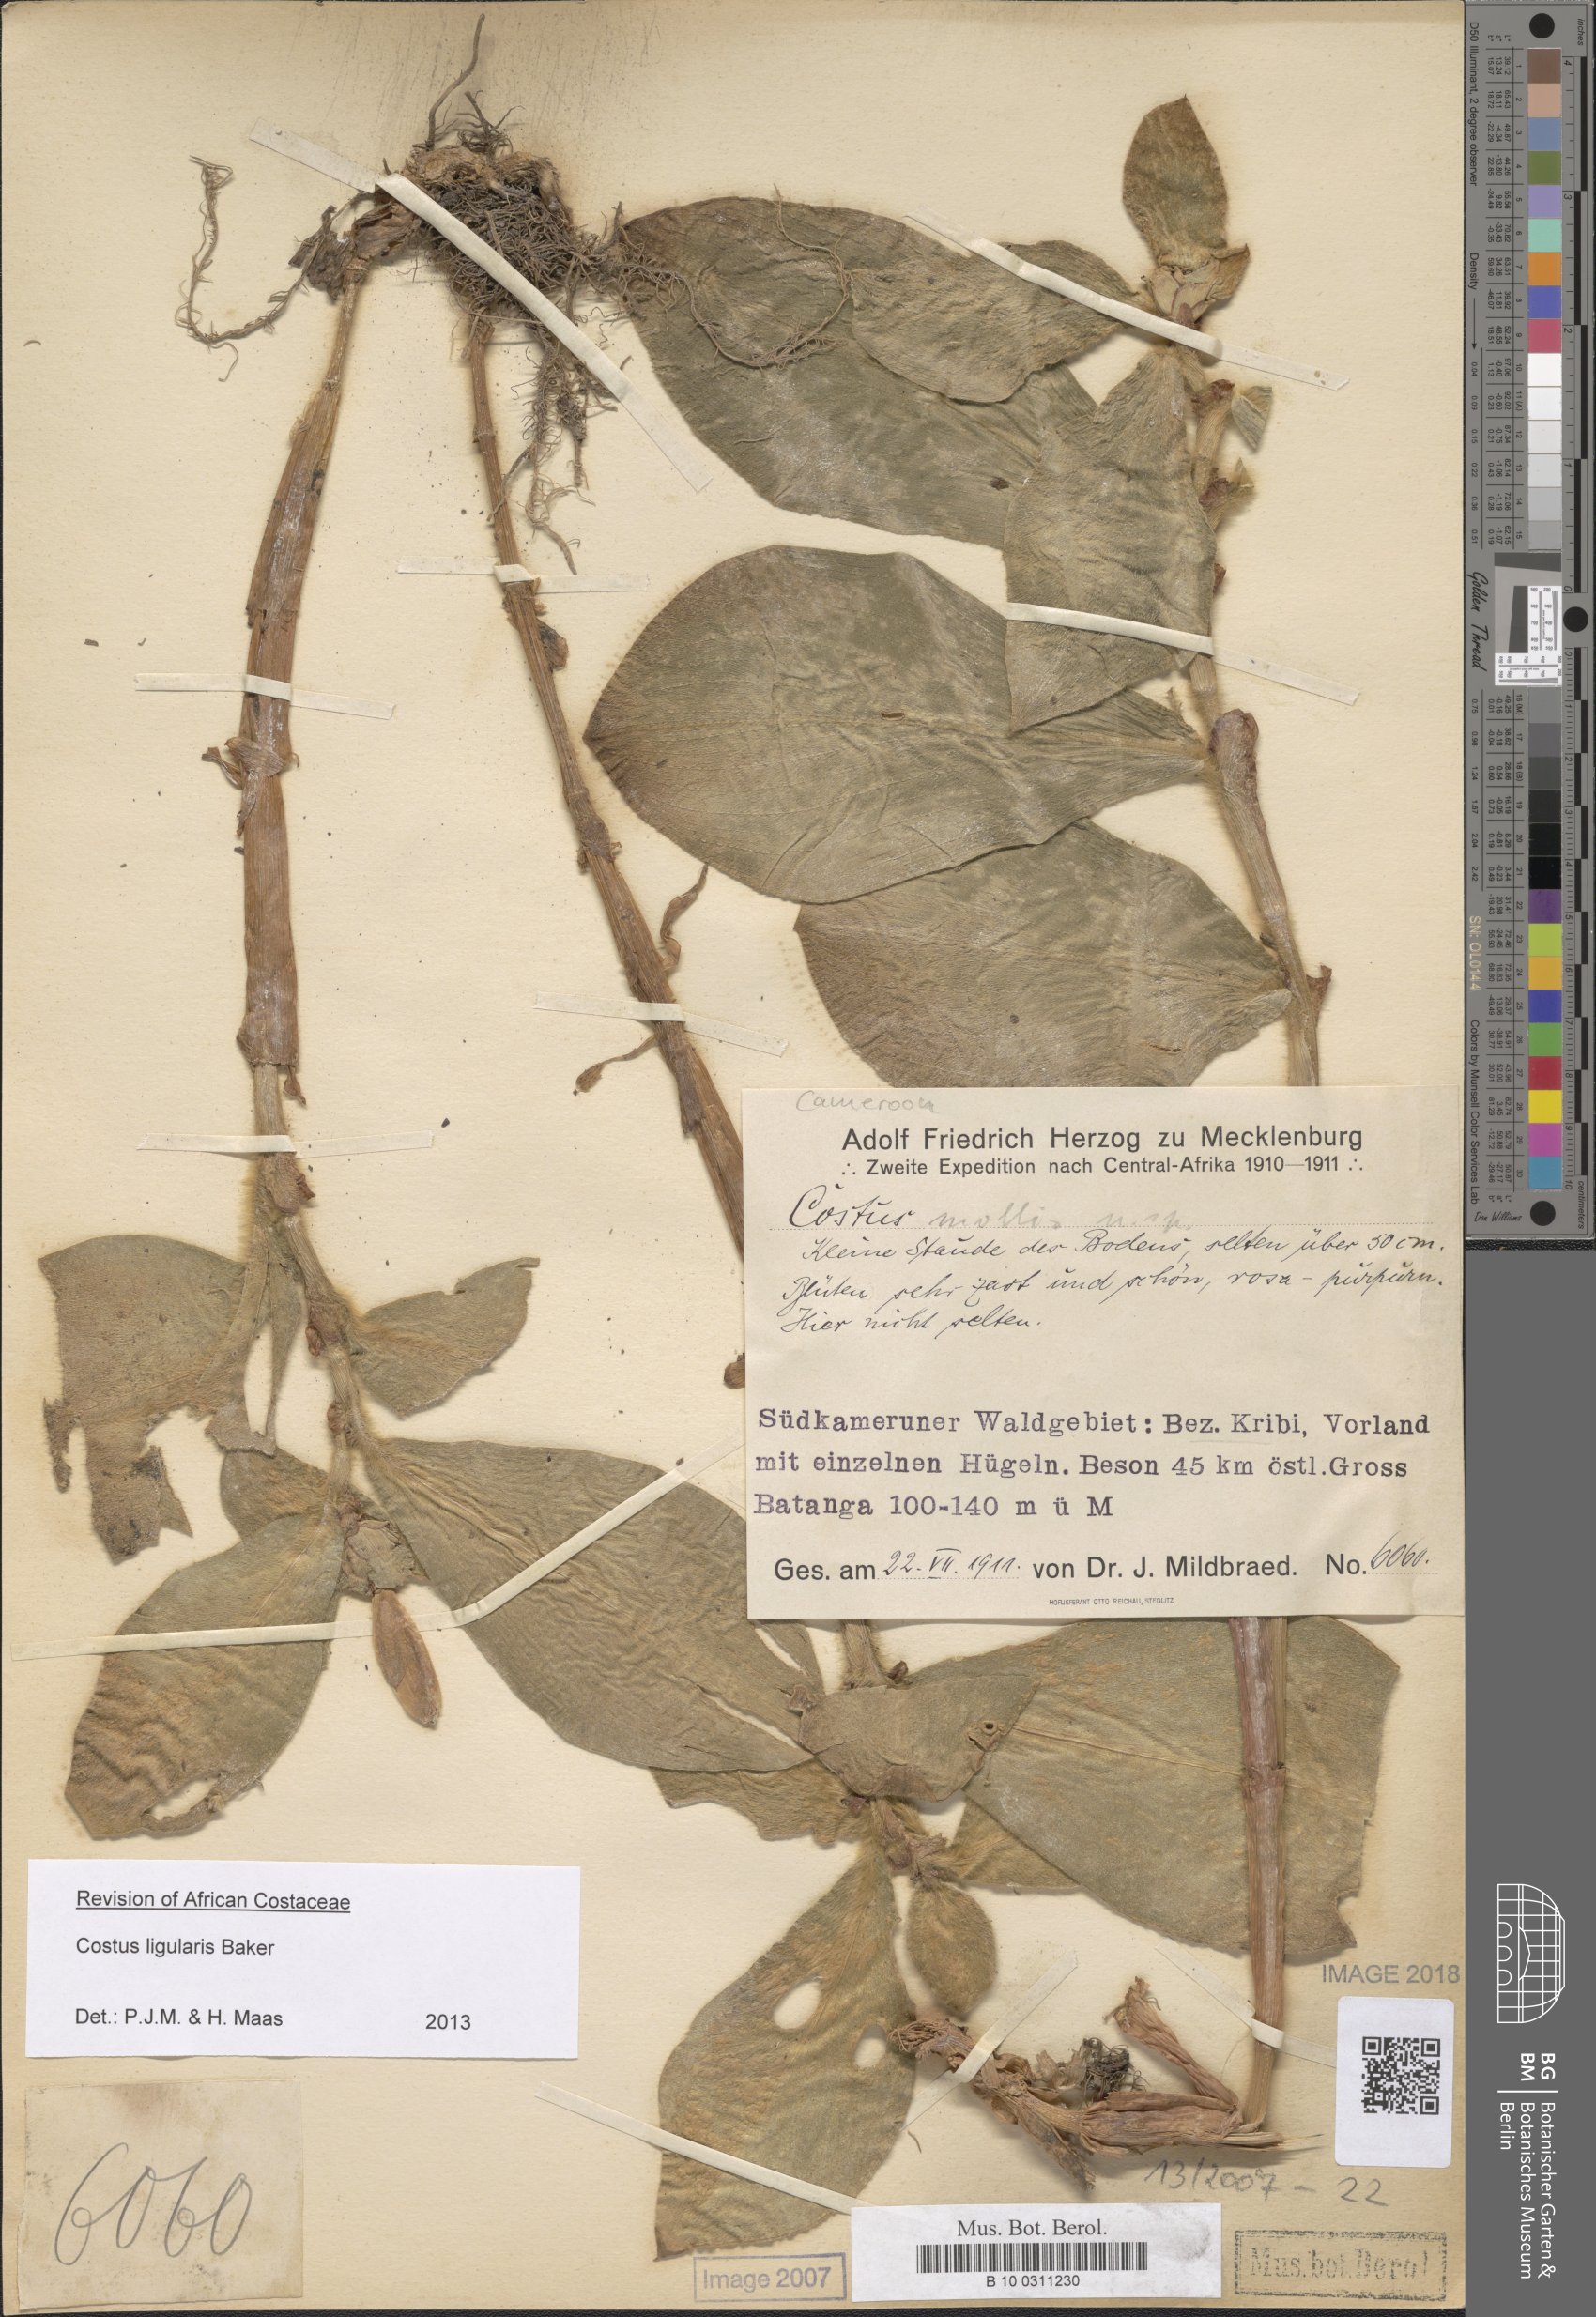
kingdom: Plantae
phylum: Tracheophyta
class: Liliopsida
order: Zingiberales
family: Costaceae
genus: Costus
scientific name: Costus ligularis
